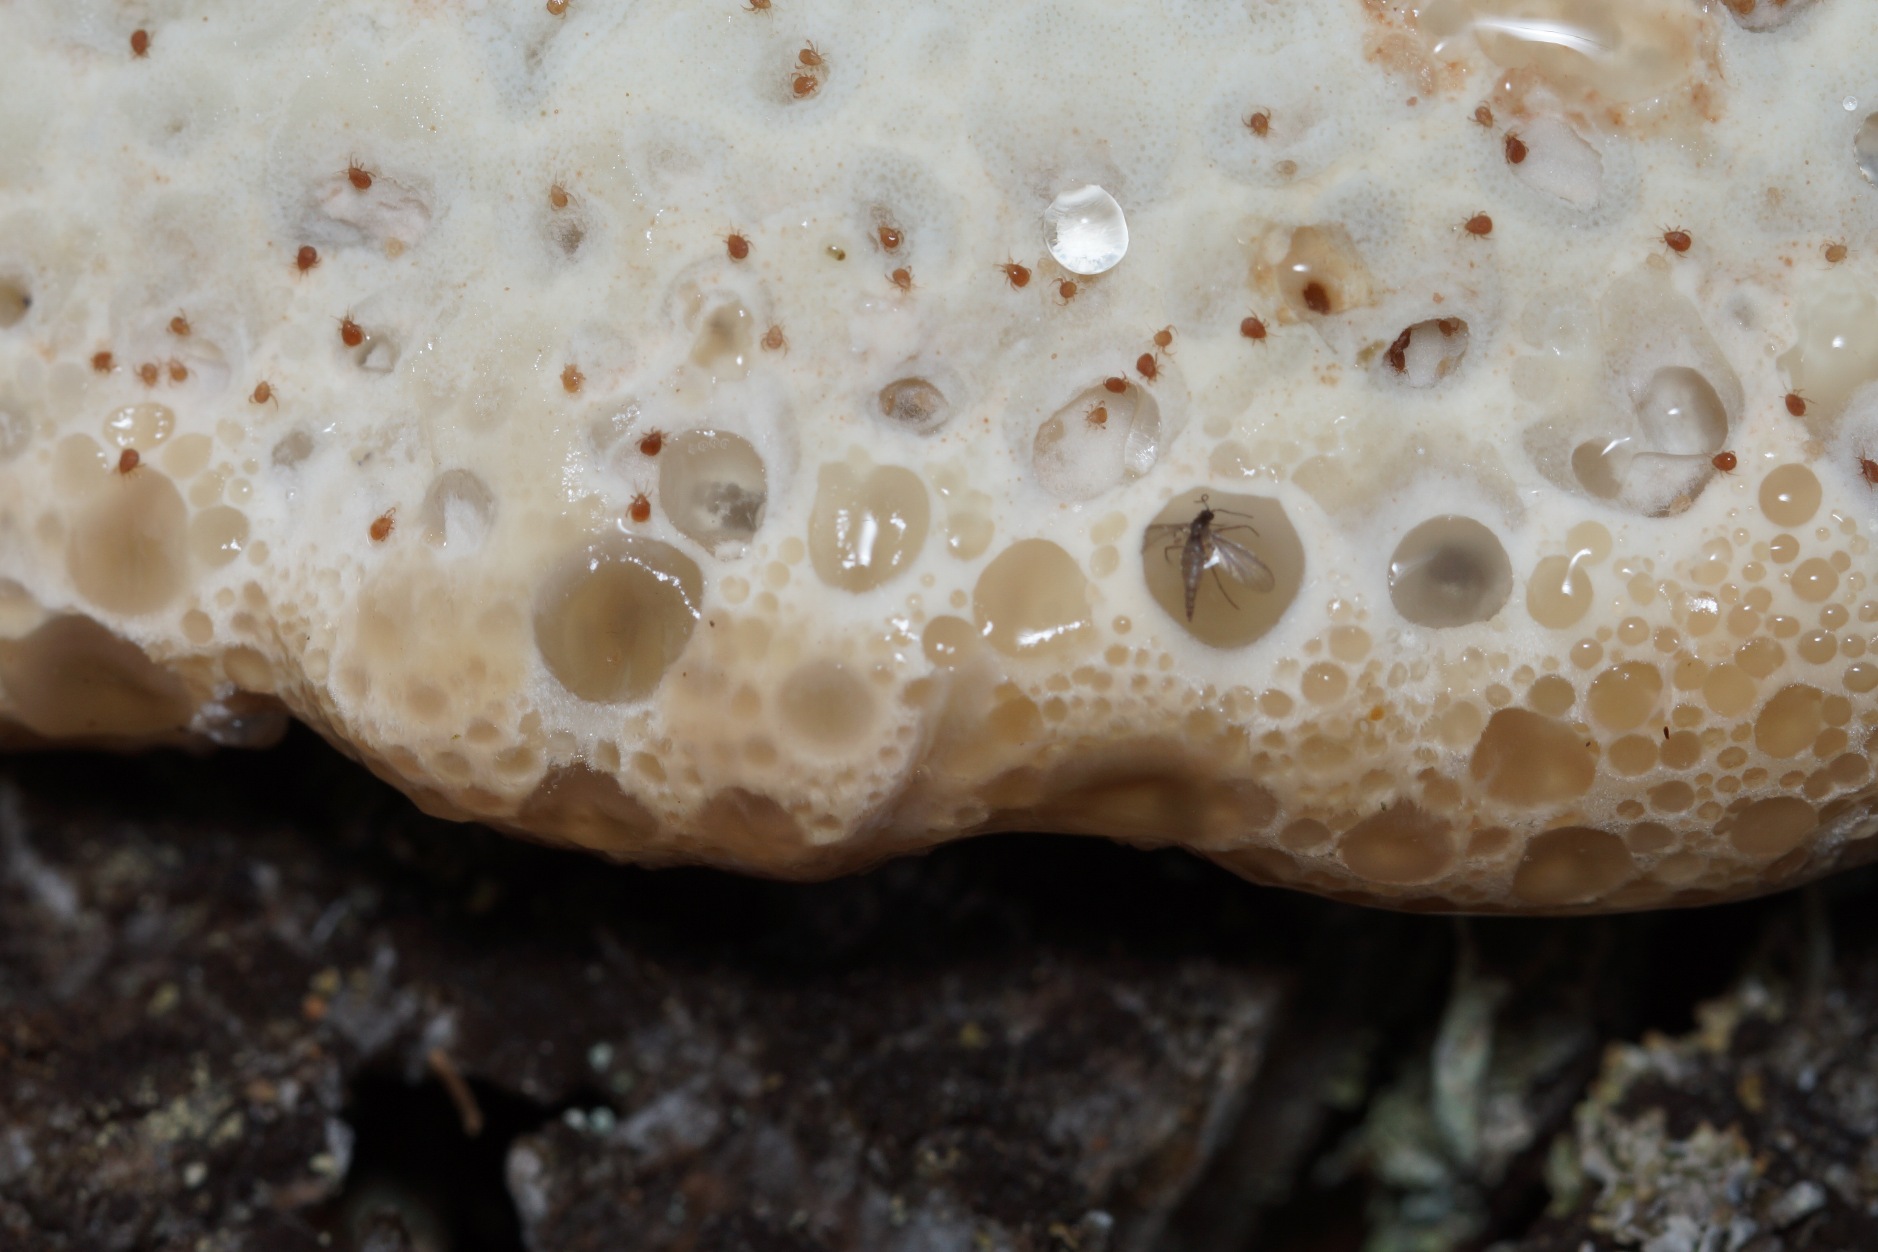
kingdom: Fungi
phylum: Basidiomycota
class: Agaricomycetes
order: Polyporales
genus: Calcipostia
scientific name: Calcipostia guttulata
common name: Dråbe-kødporesvamp
